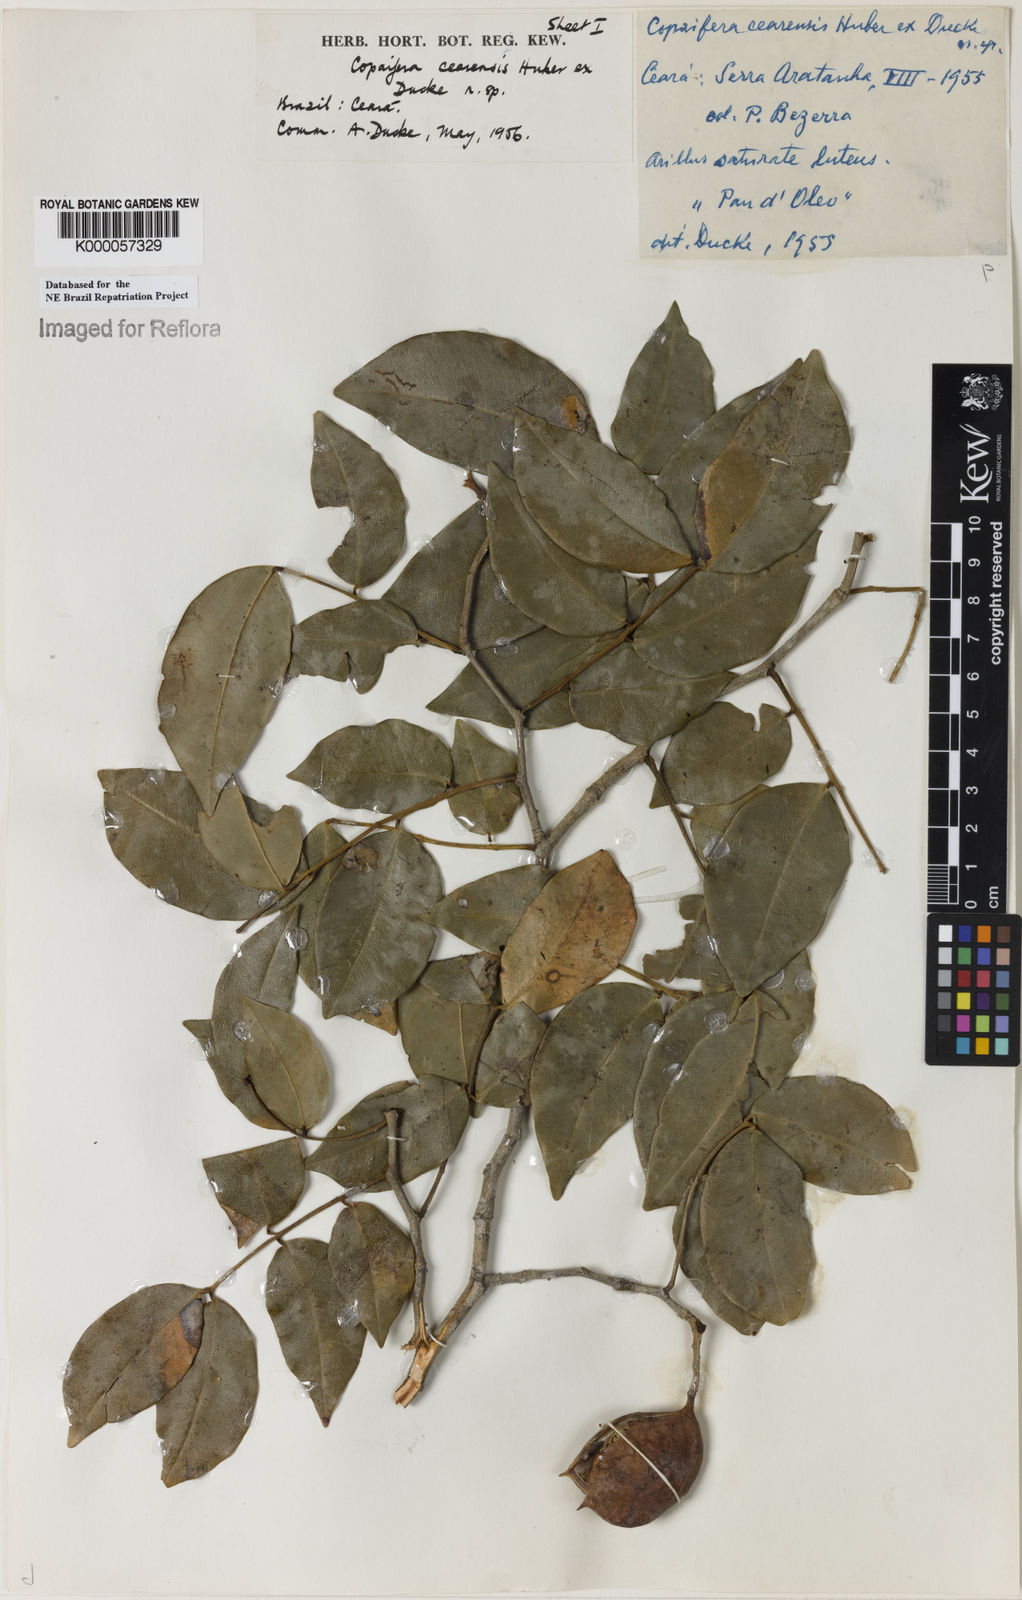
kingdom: Plantae
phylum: Tracheophyta
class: Magnoliopsida
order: Fabales
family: Fabaceae
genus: Copaifera
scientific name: Copaifera duckei
